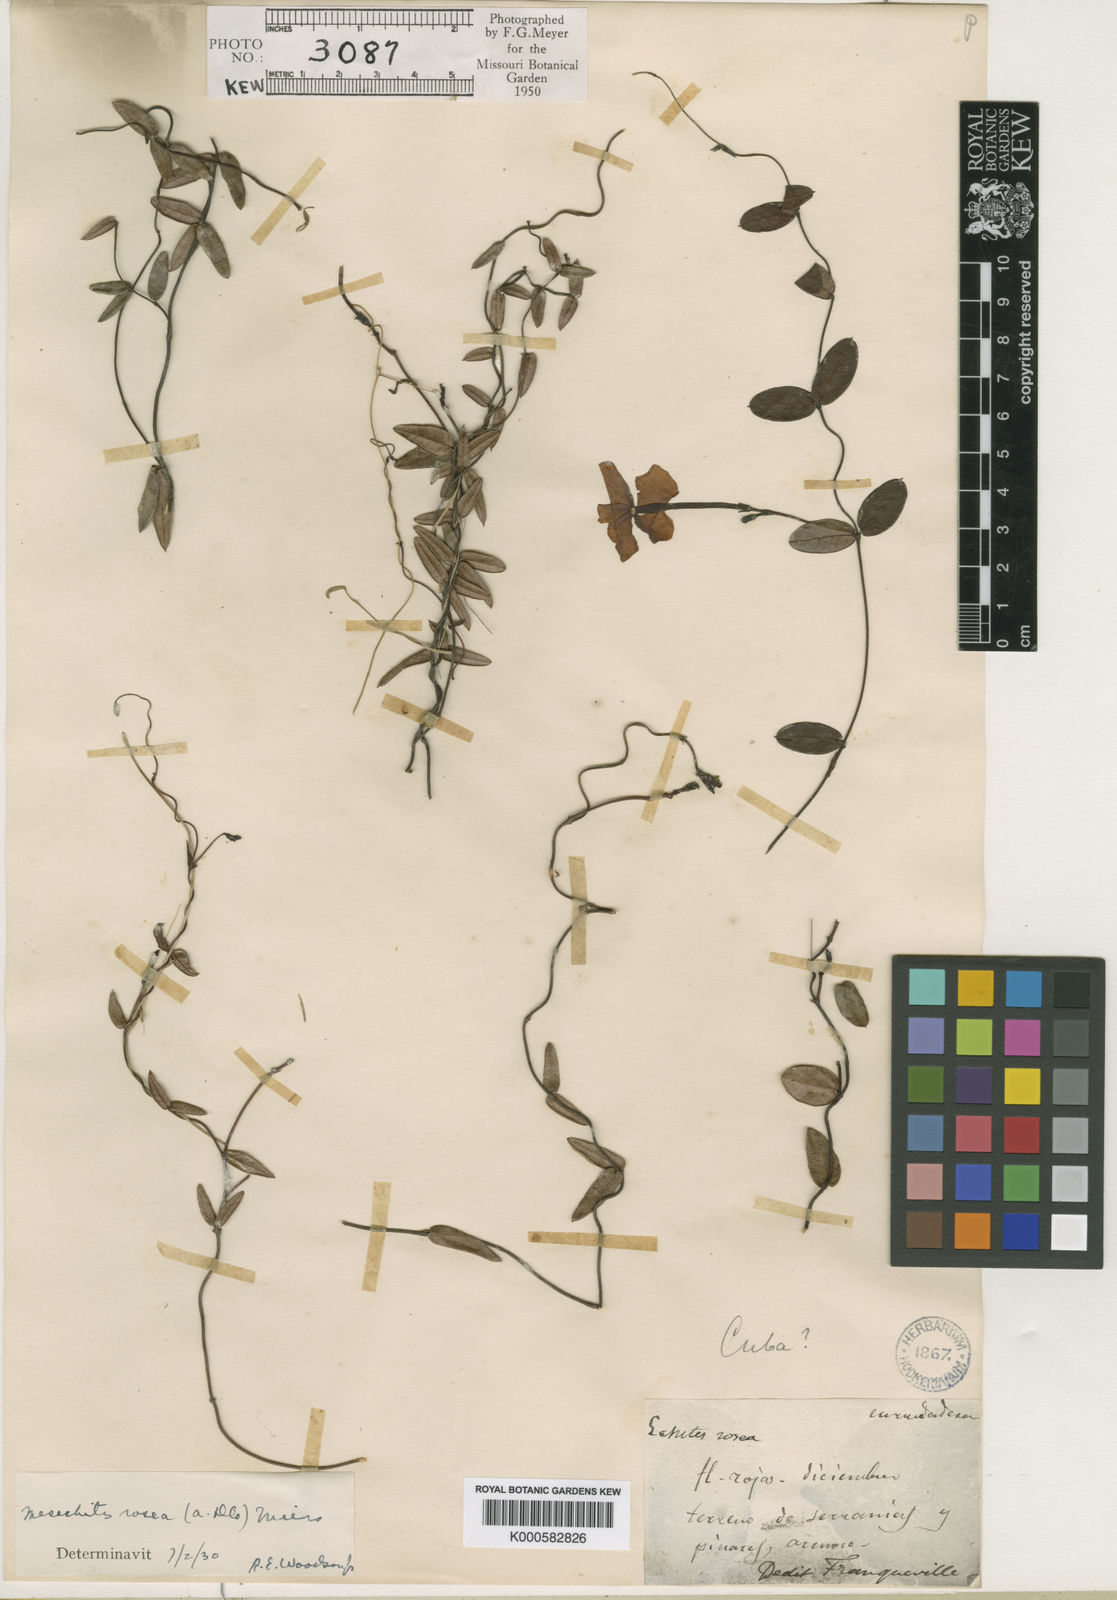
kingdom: Plantae
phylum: Tracheophyta
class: Magnoliopsida
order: Gentianales
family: Apocynaceae
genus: Mesechites
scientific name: Mesechites roseus
